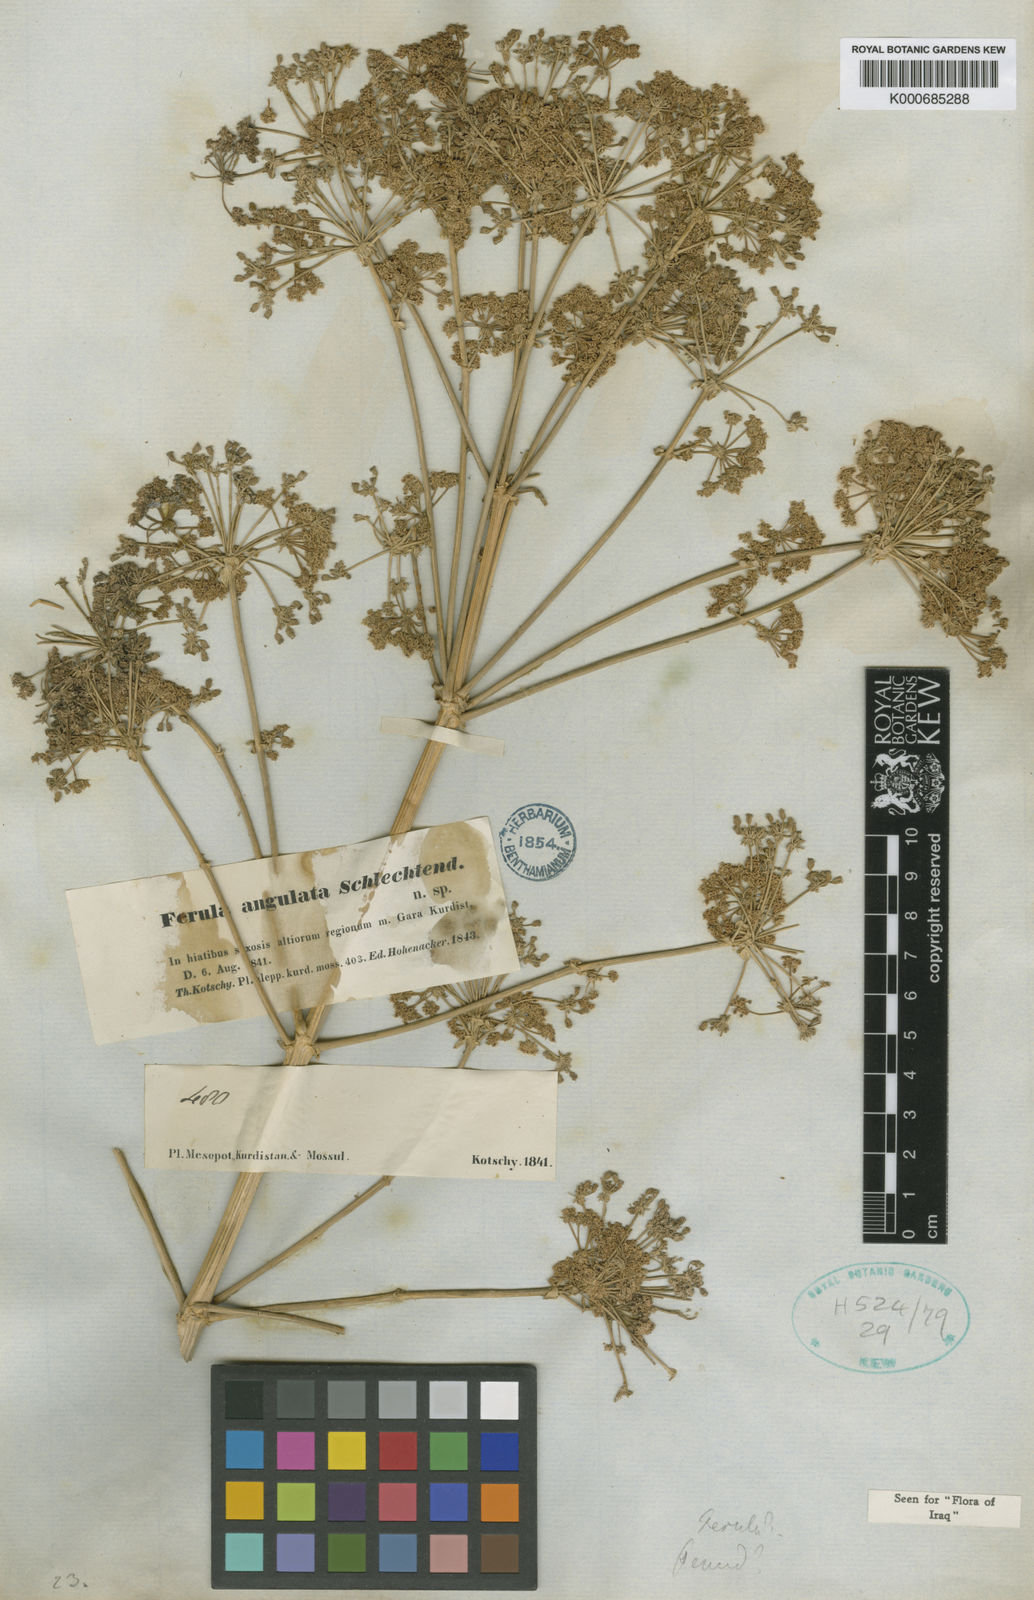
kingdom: Plantae
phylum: Tracheophyta
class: Magnoliopsida
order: Apiales
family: Apiaceae
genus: Ferulago
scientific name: Ferulago angulata
